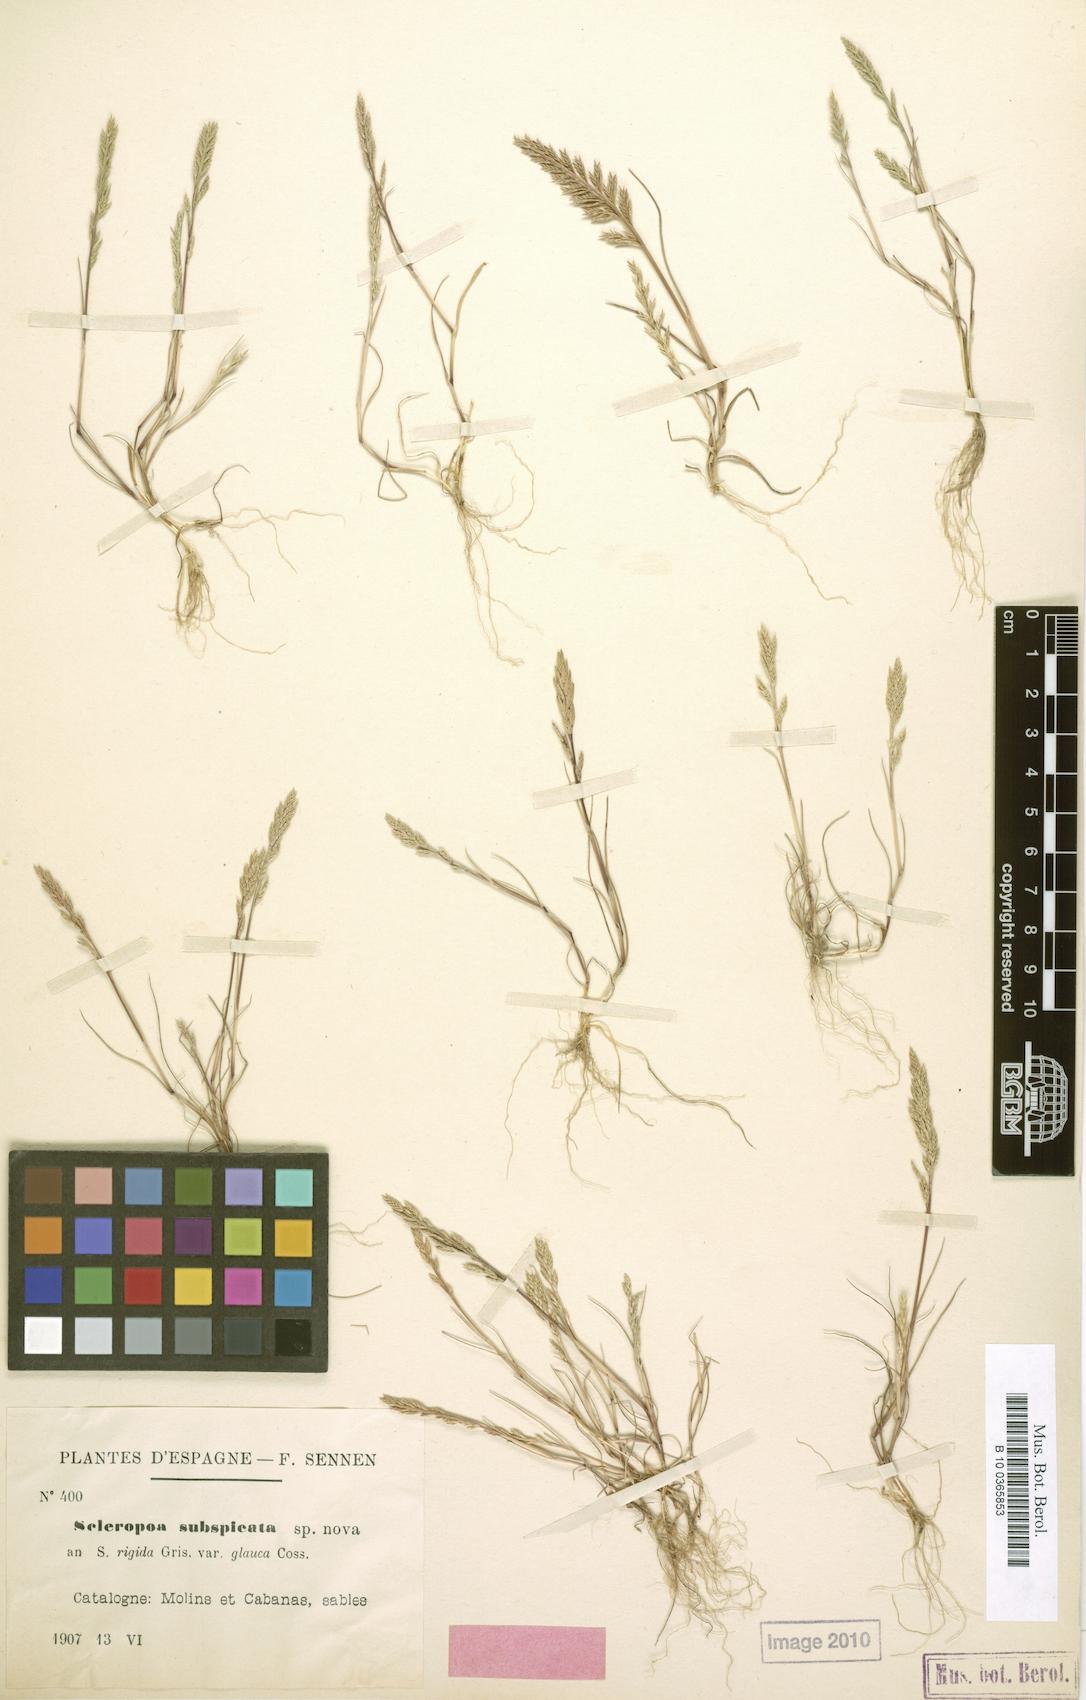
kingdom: Plantae
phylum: Tracheophyta
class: Liliopsida
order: Poales
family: Poaceae
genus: Catapodium
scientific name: Catapodium rigidum
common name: Fern-grass
